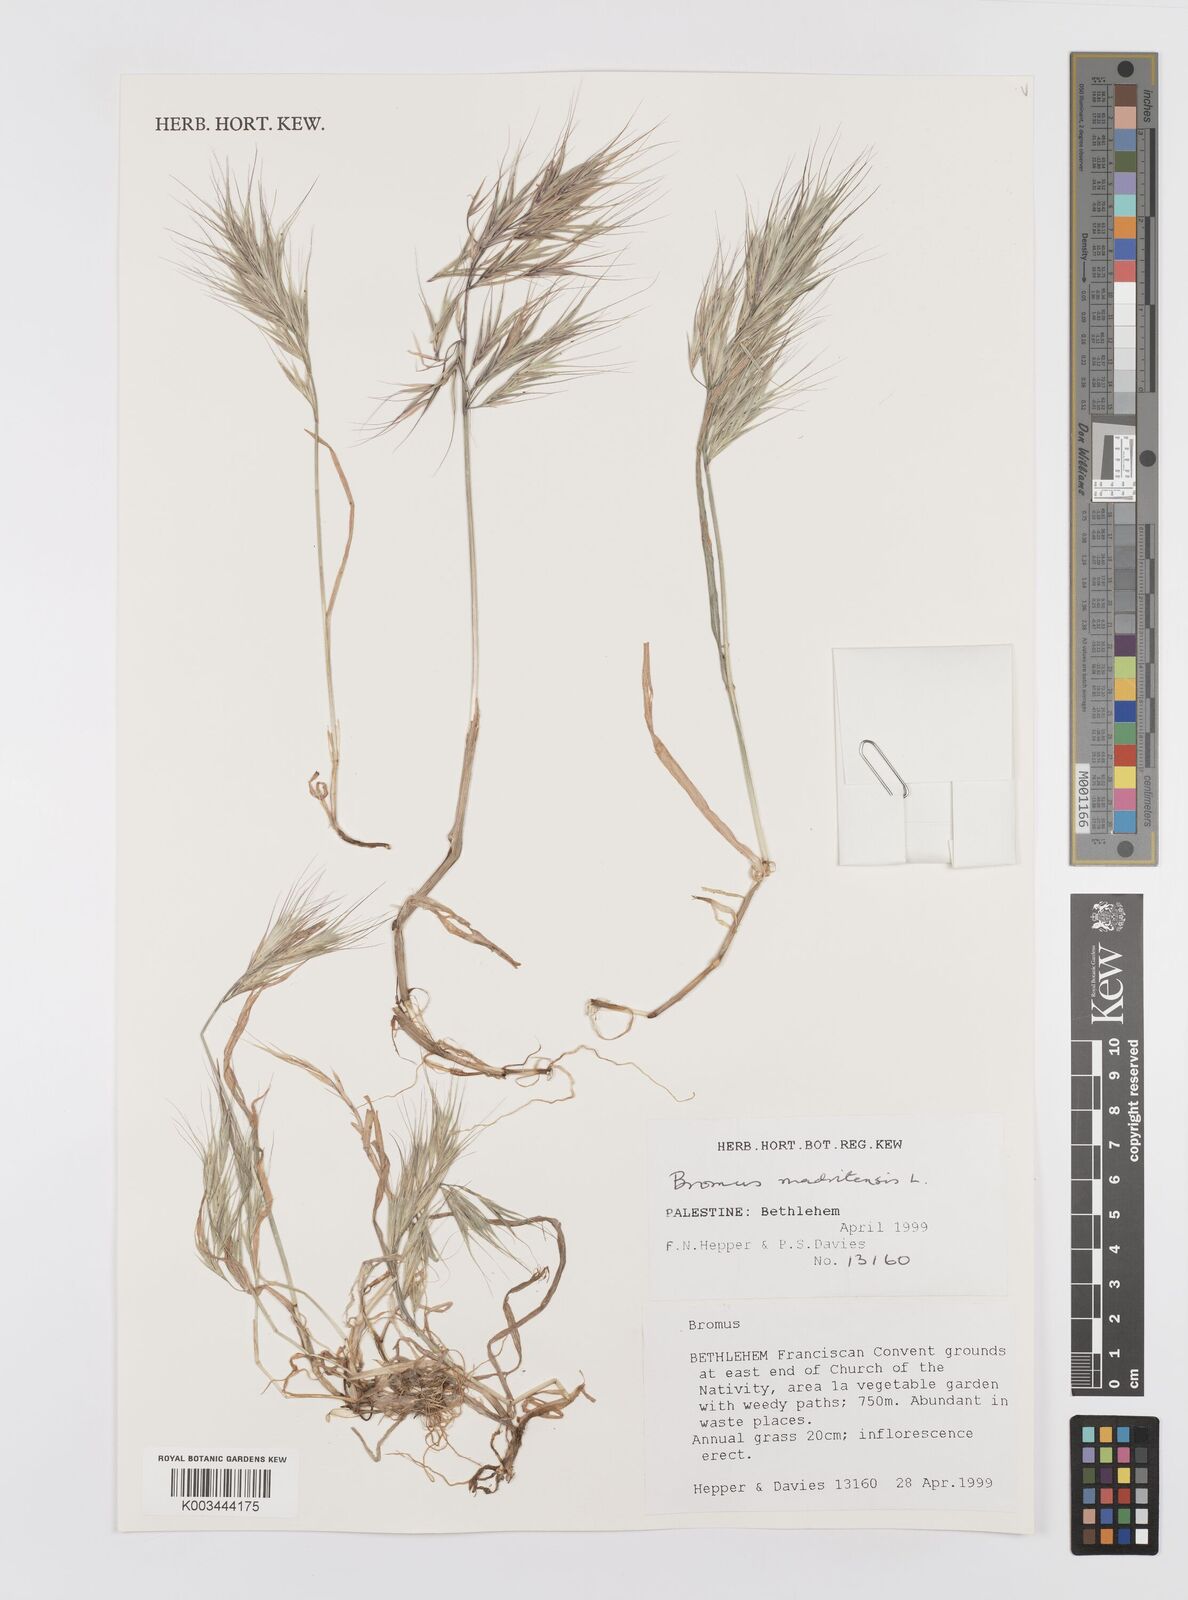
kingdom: Plantae
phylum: Tracheophyta
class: Liliopsida
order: Poales
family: Poaceae
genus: Bromus
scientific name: Bromus madritensis
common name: Compact brome
